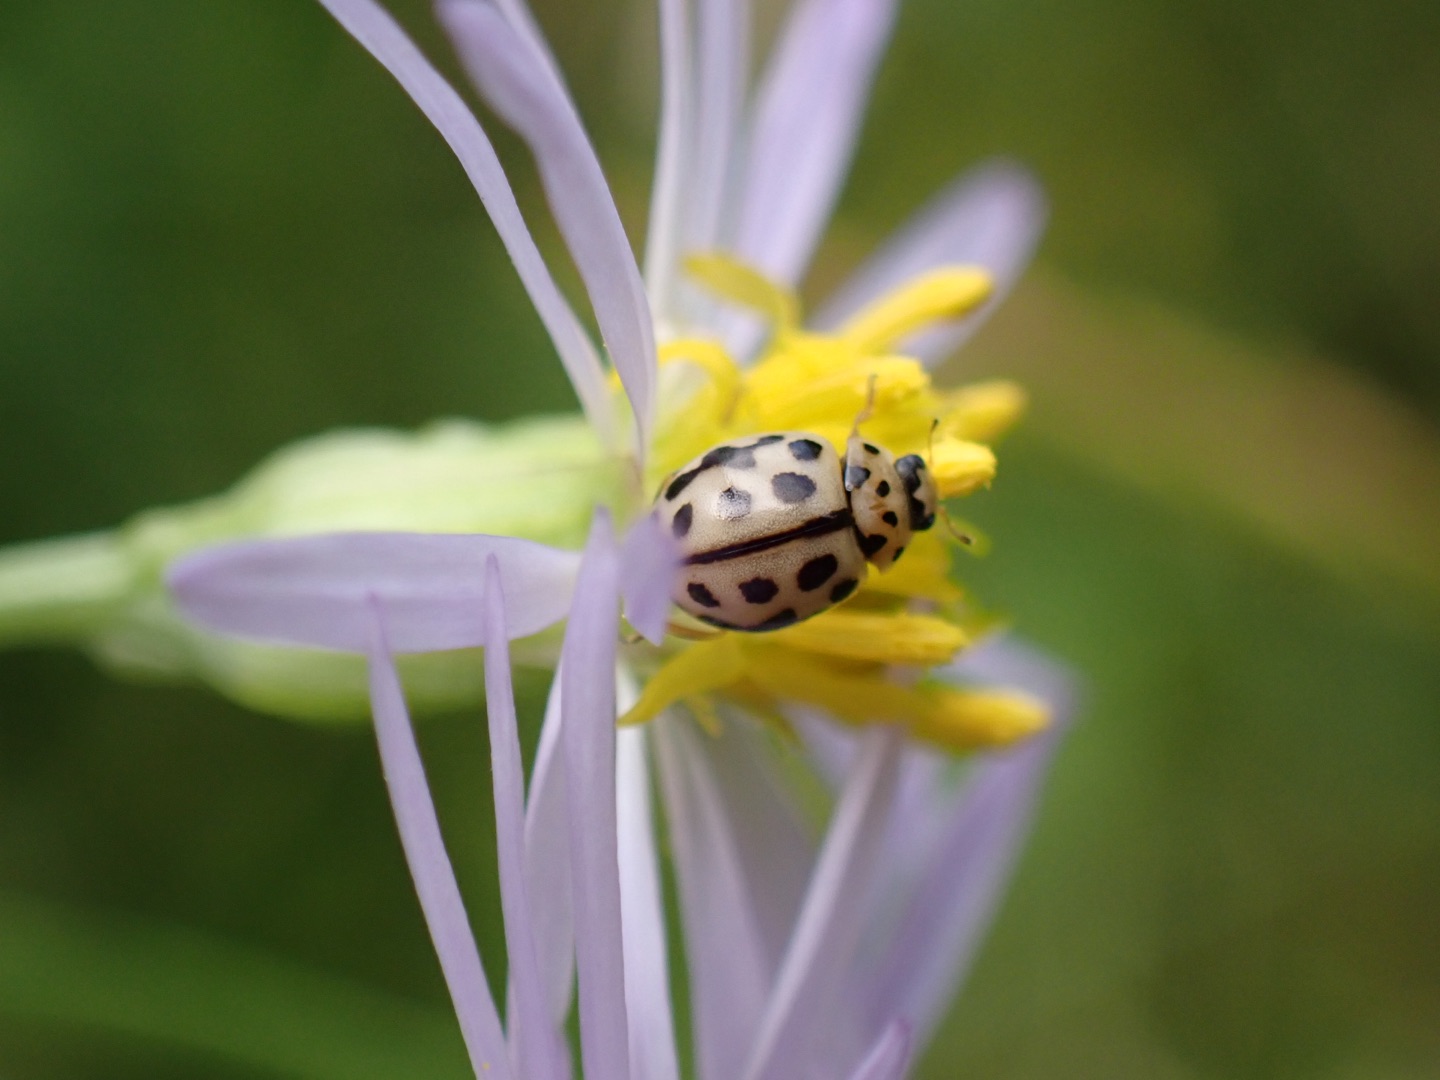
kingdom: Animalia
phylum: Arthropoda
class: Insecta
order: Coleoptera
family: Coccinellidae
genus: Tytthaspis
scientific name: Tytthaspis sedecimpunctata
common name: Sekstenprikket mariehøne
